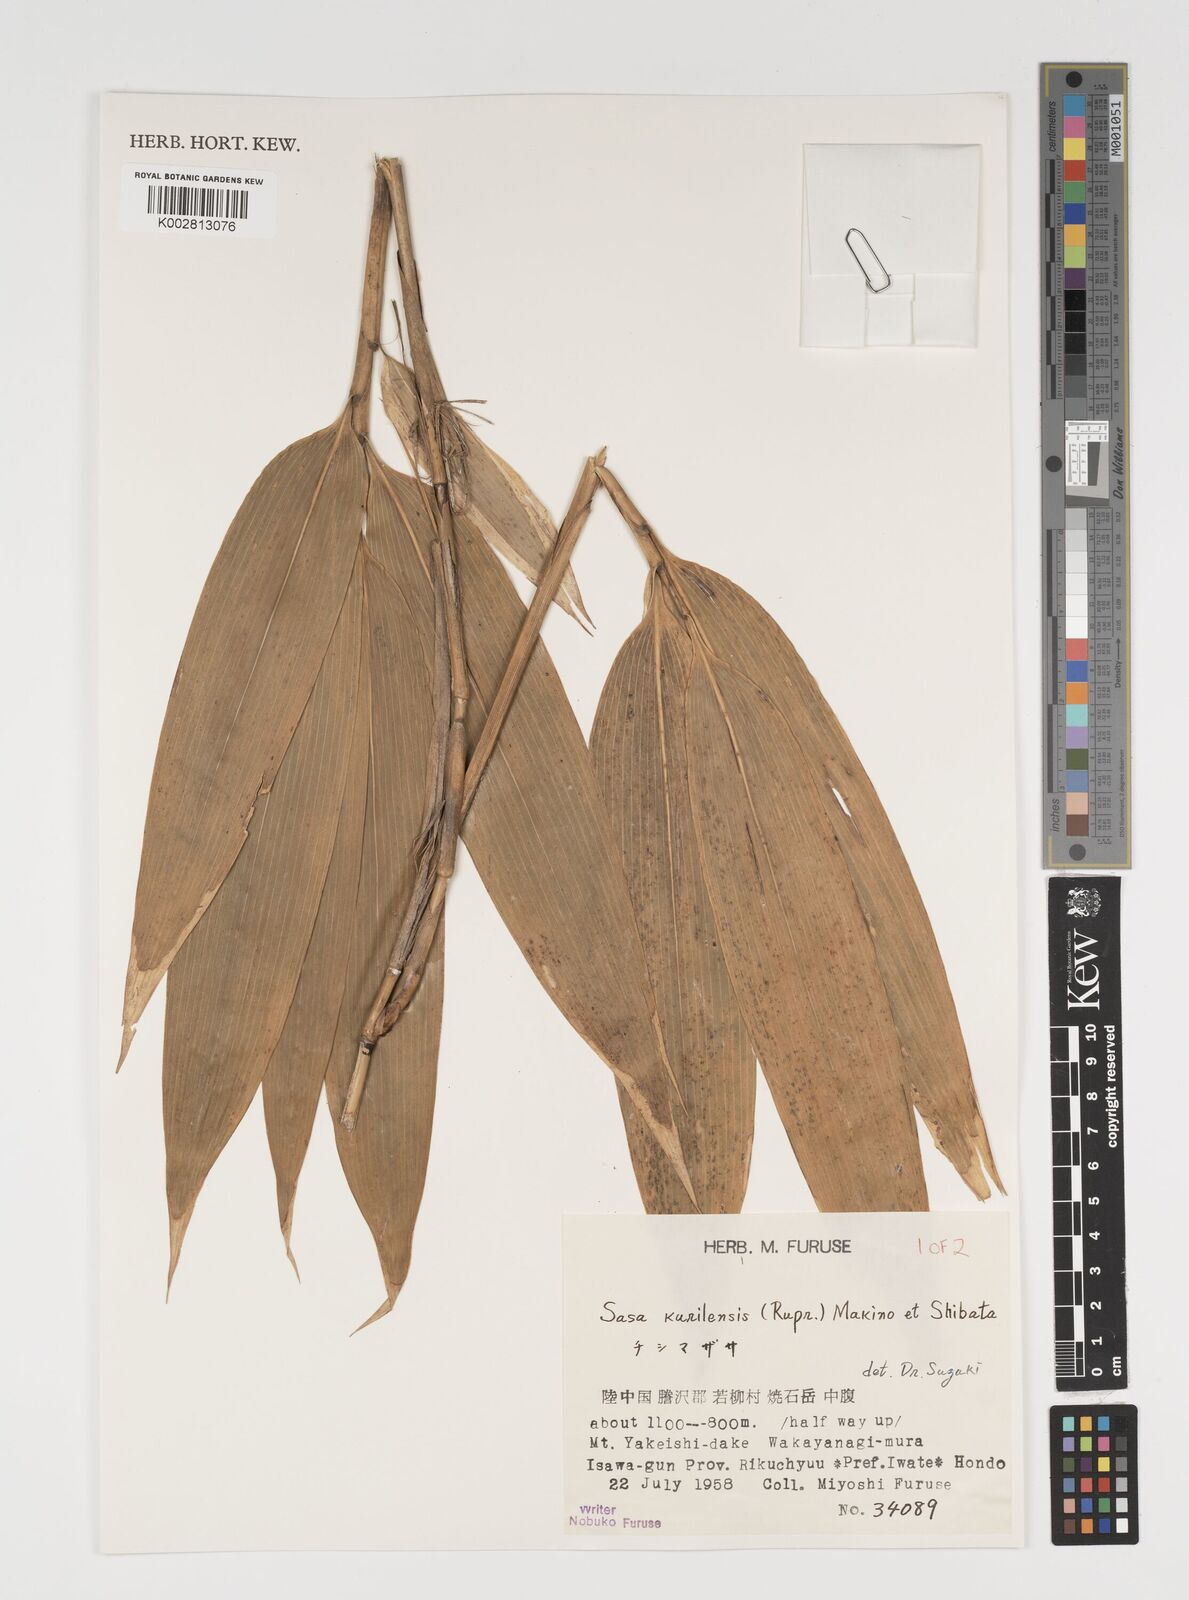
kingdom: Plantae
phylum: Tracheophyta
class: Liliopsida
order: Poales
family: Poaceae
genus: Sasa
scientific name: Sasa kurilensis
